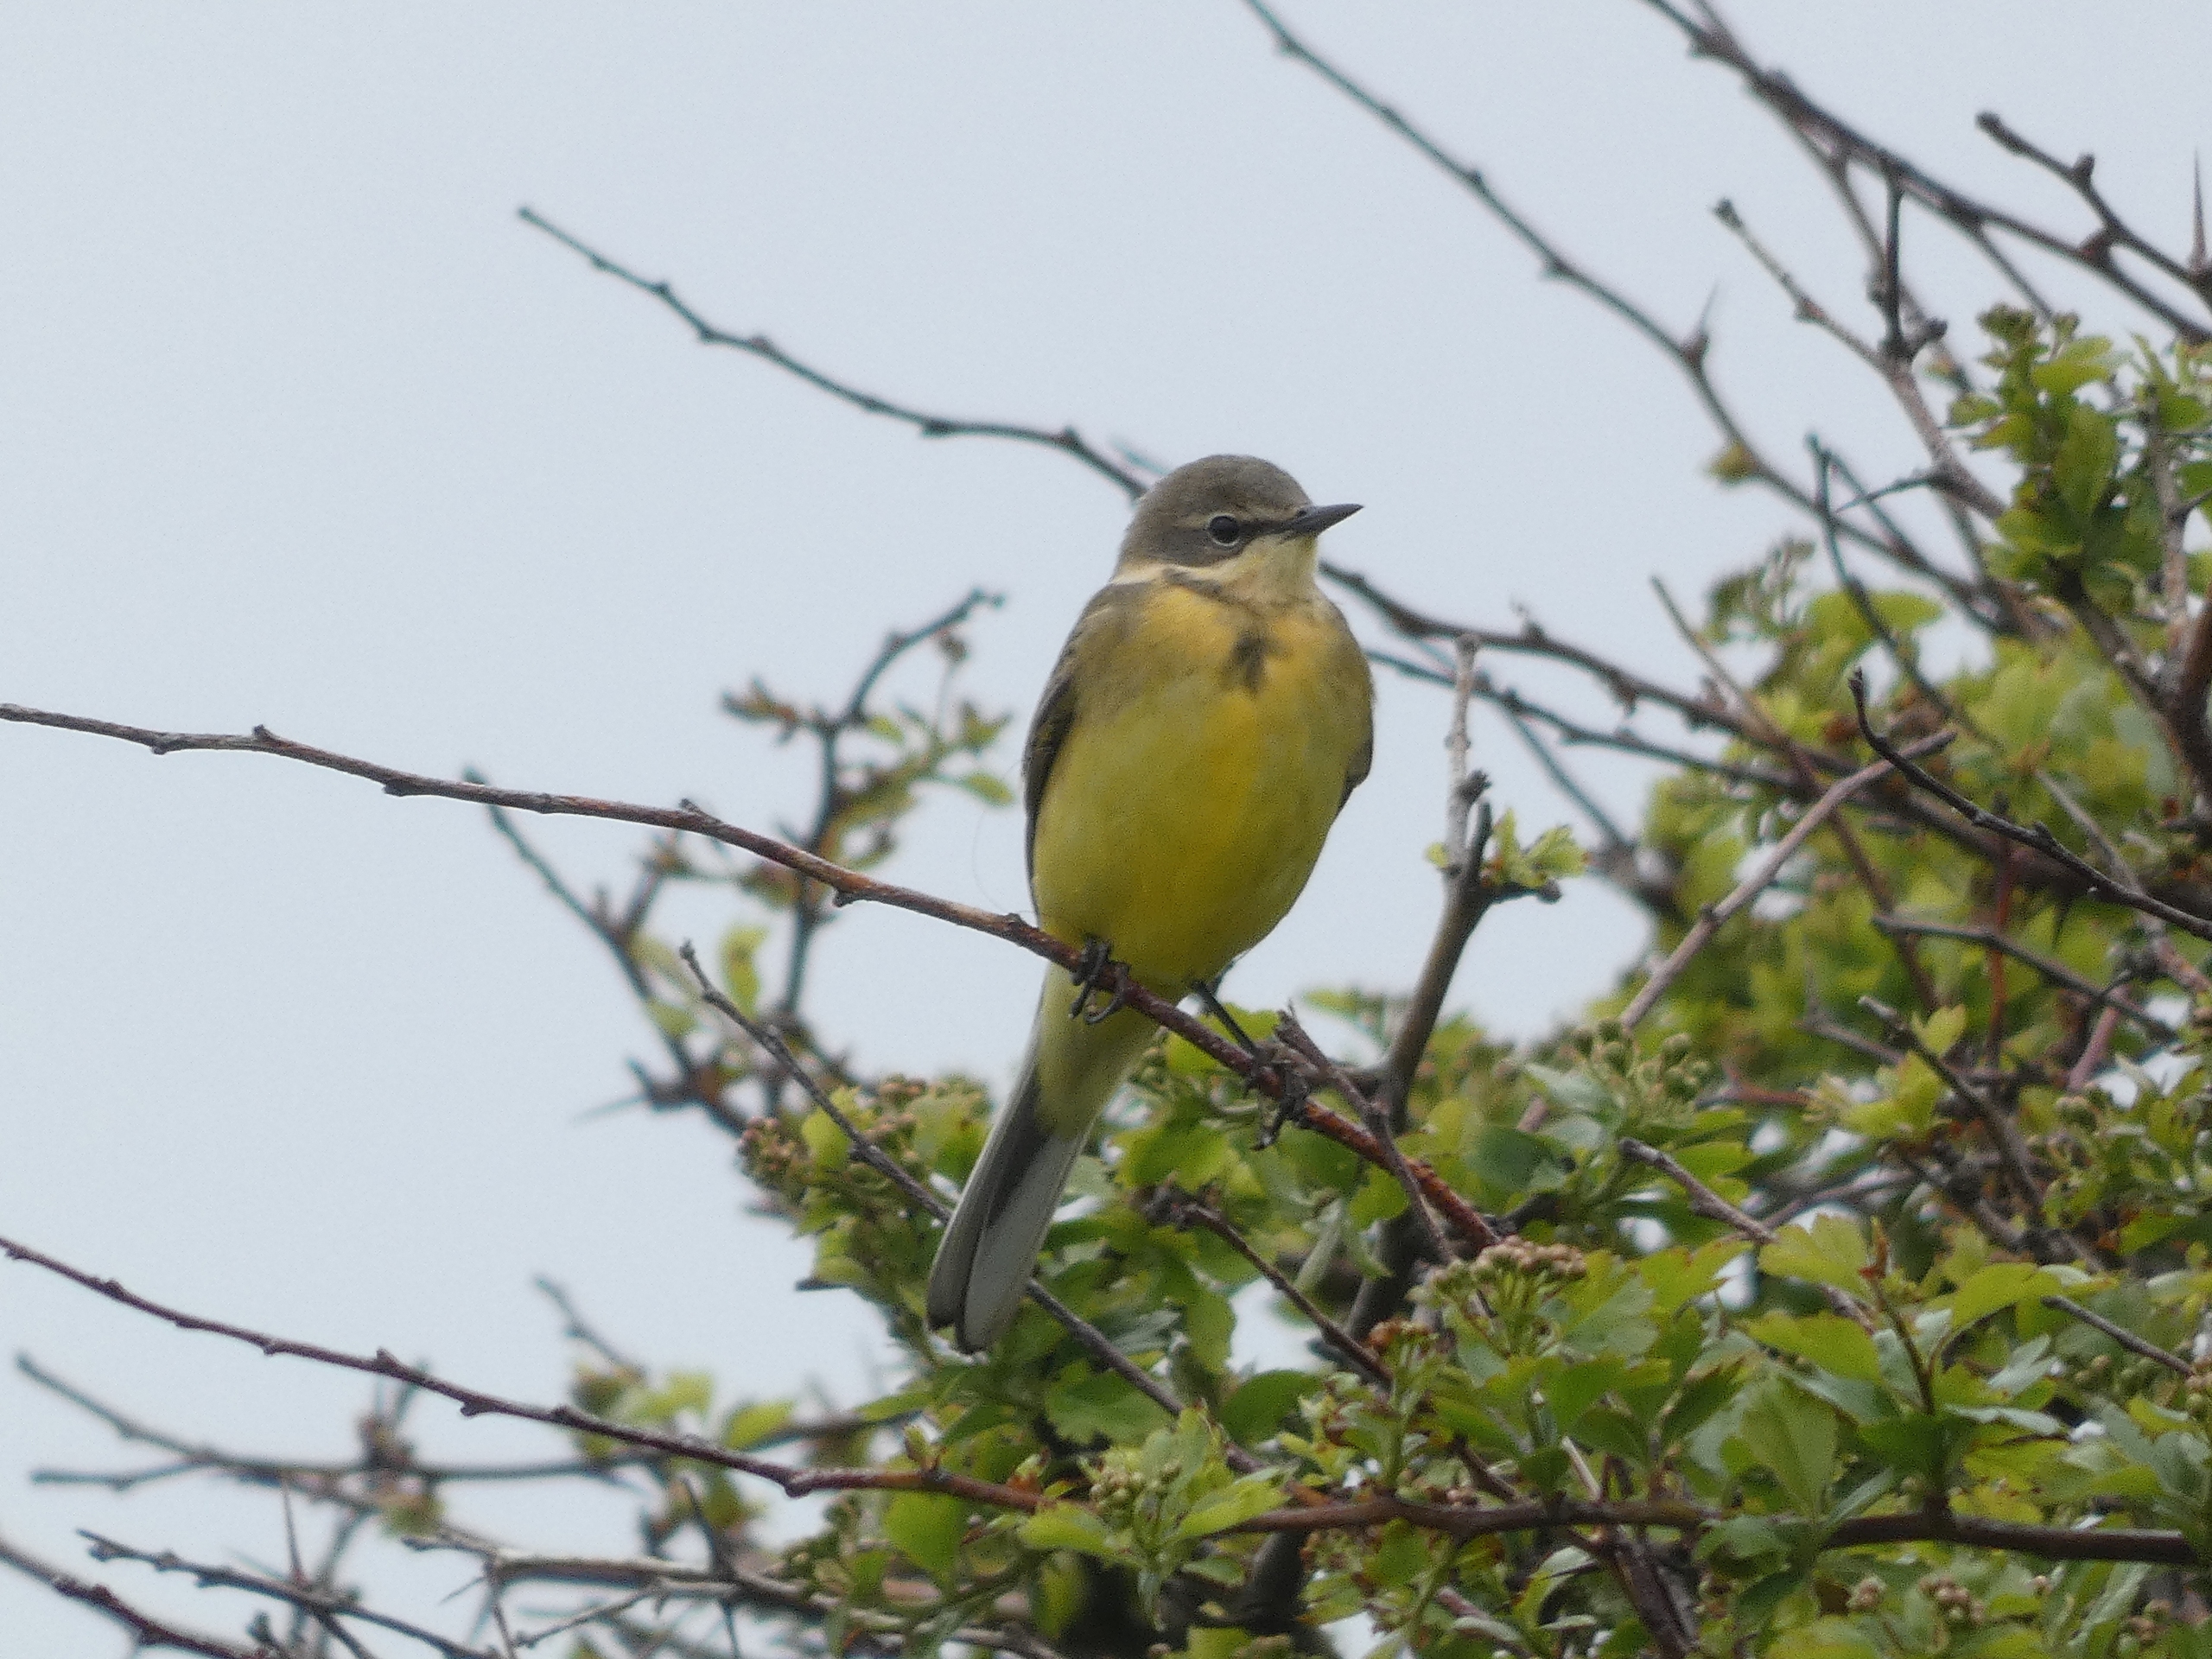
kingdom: Animalia
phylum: Chordata
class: Aves
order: Passeriformes
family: Motacillidae
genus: Motacilla
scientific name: Motacilla flava
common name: Gul vipstjert
